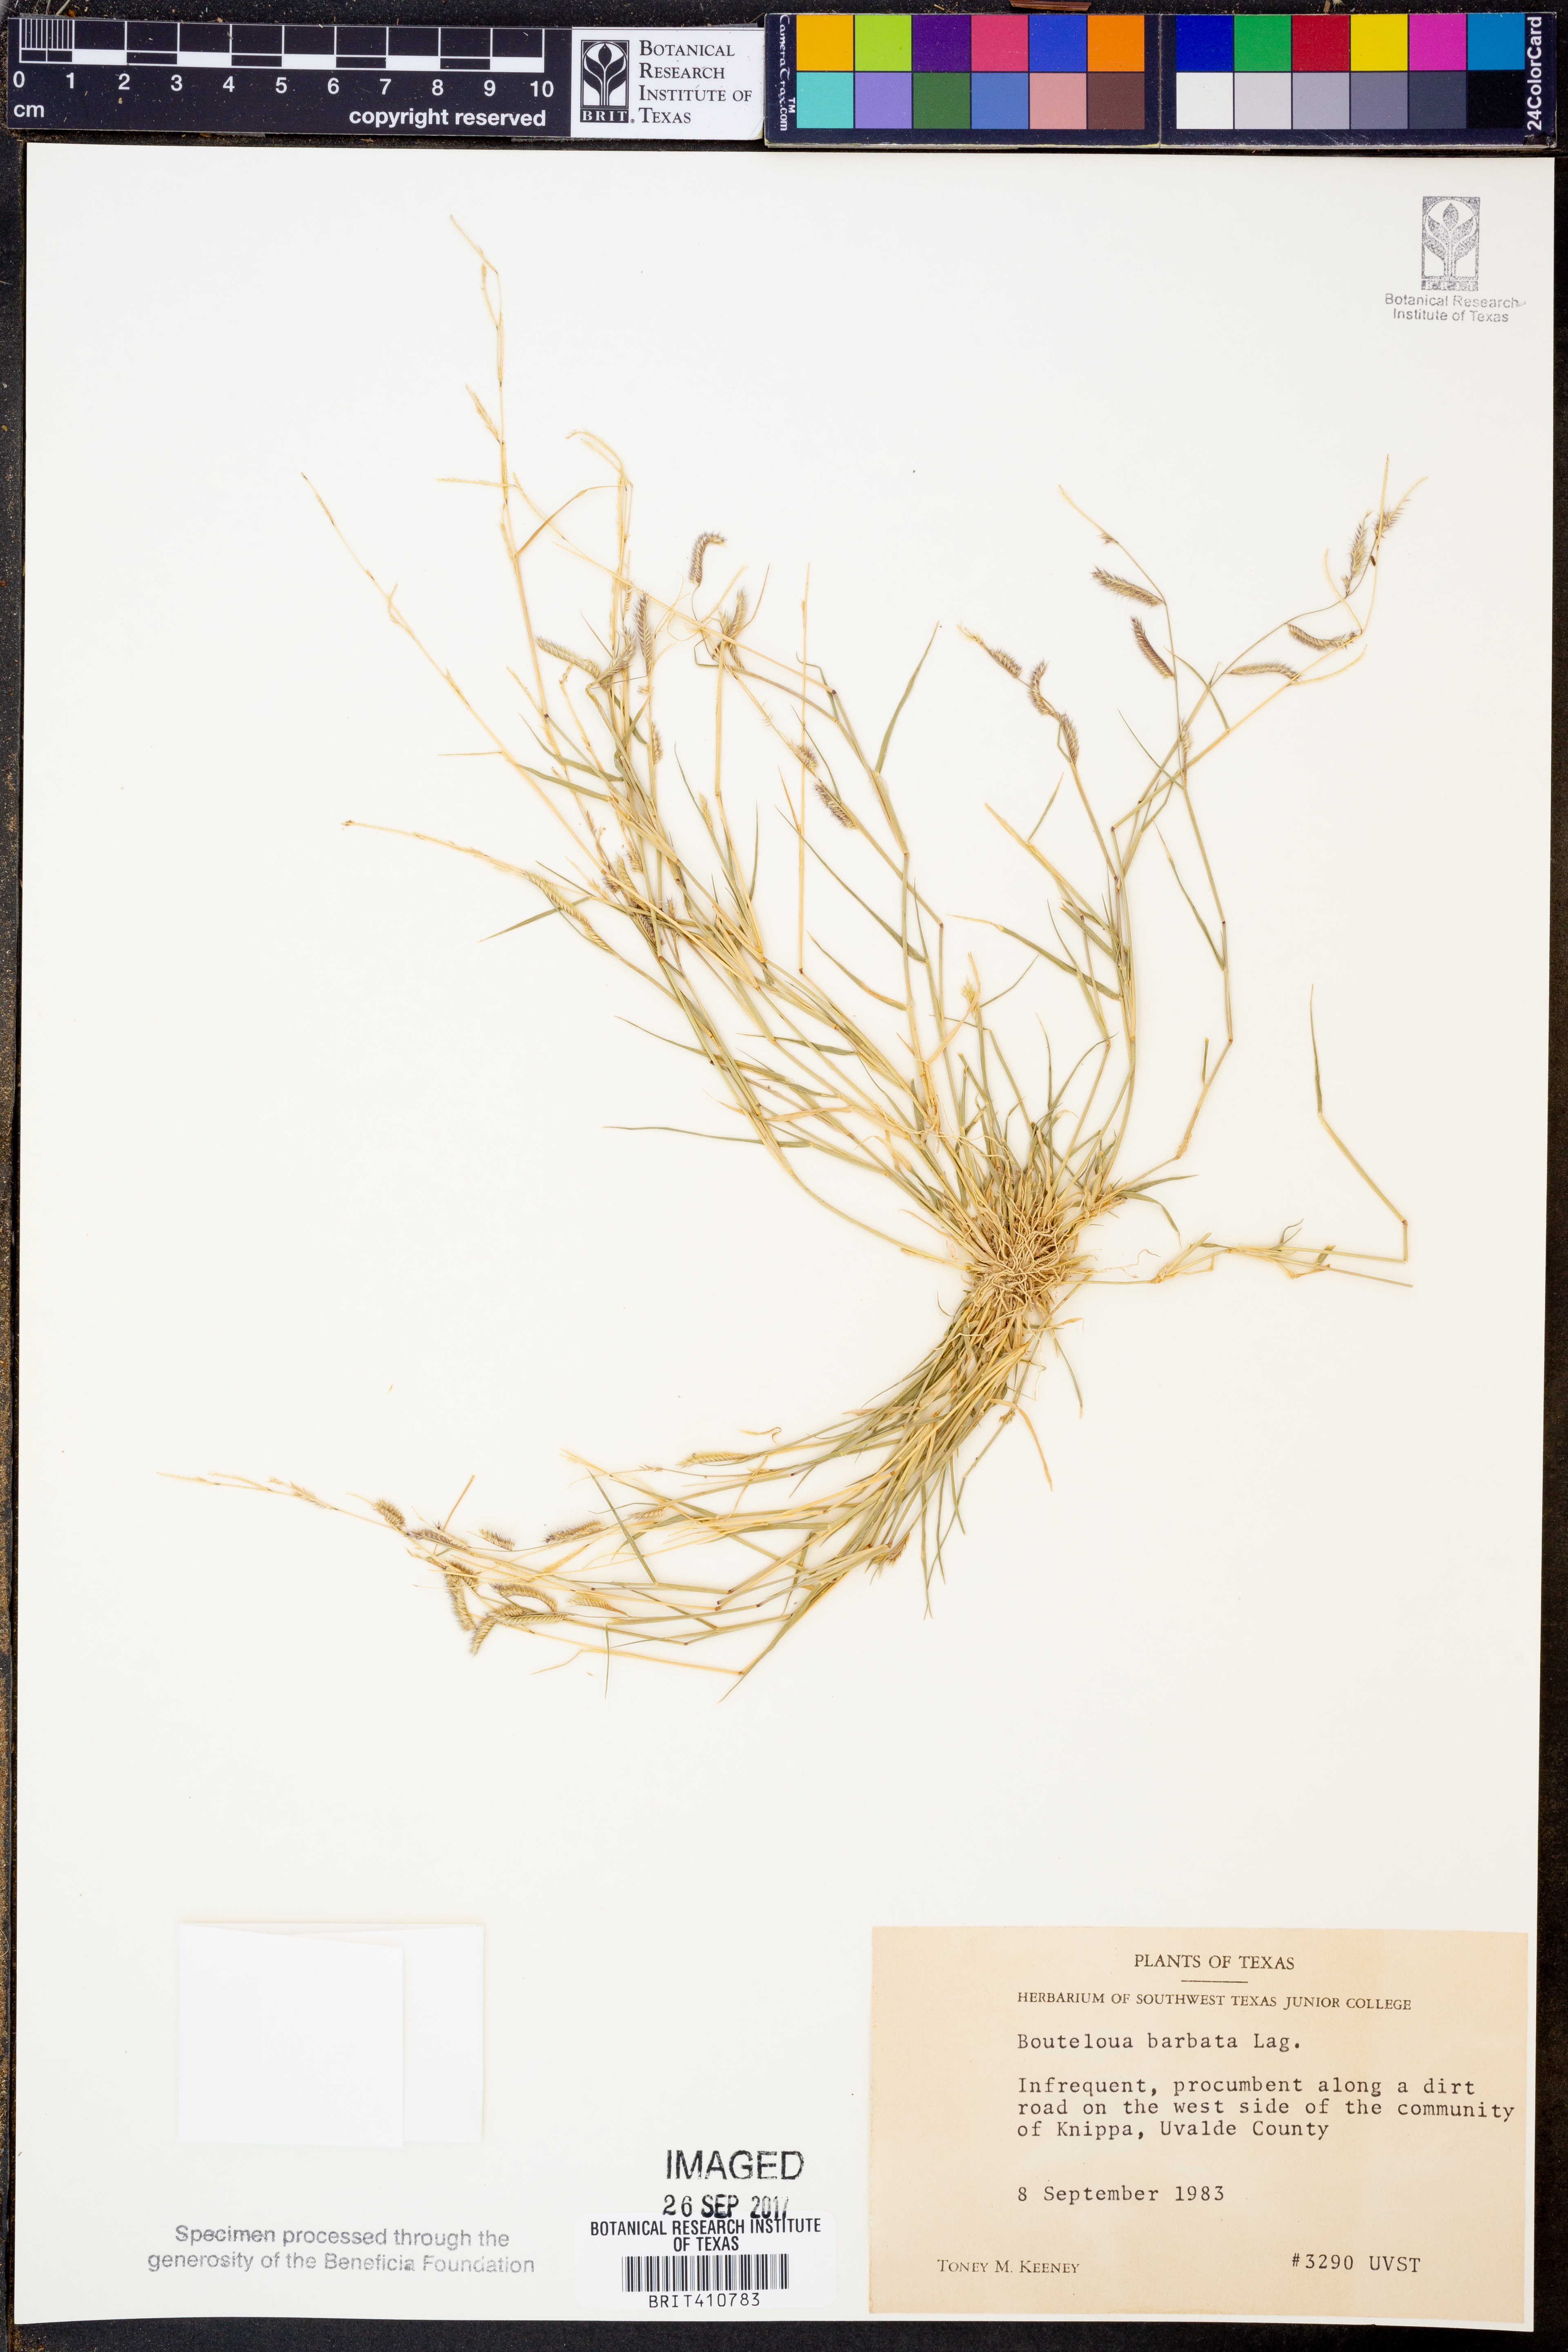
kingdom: Plantae
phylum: Tracheophyta
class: Liliopsida
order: Poales
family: Poaceae
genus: Bouteloua
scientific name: Bouteloua barbata
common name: Six-weeks grama
